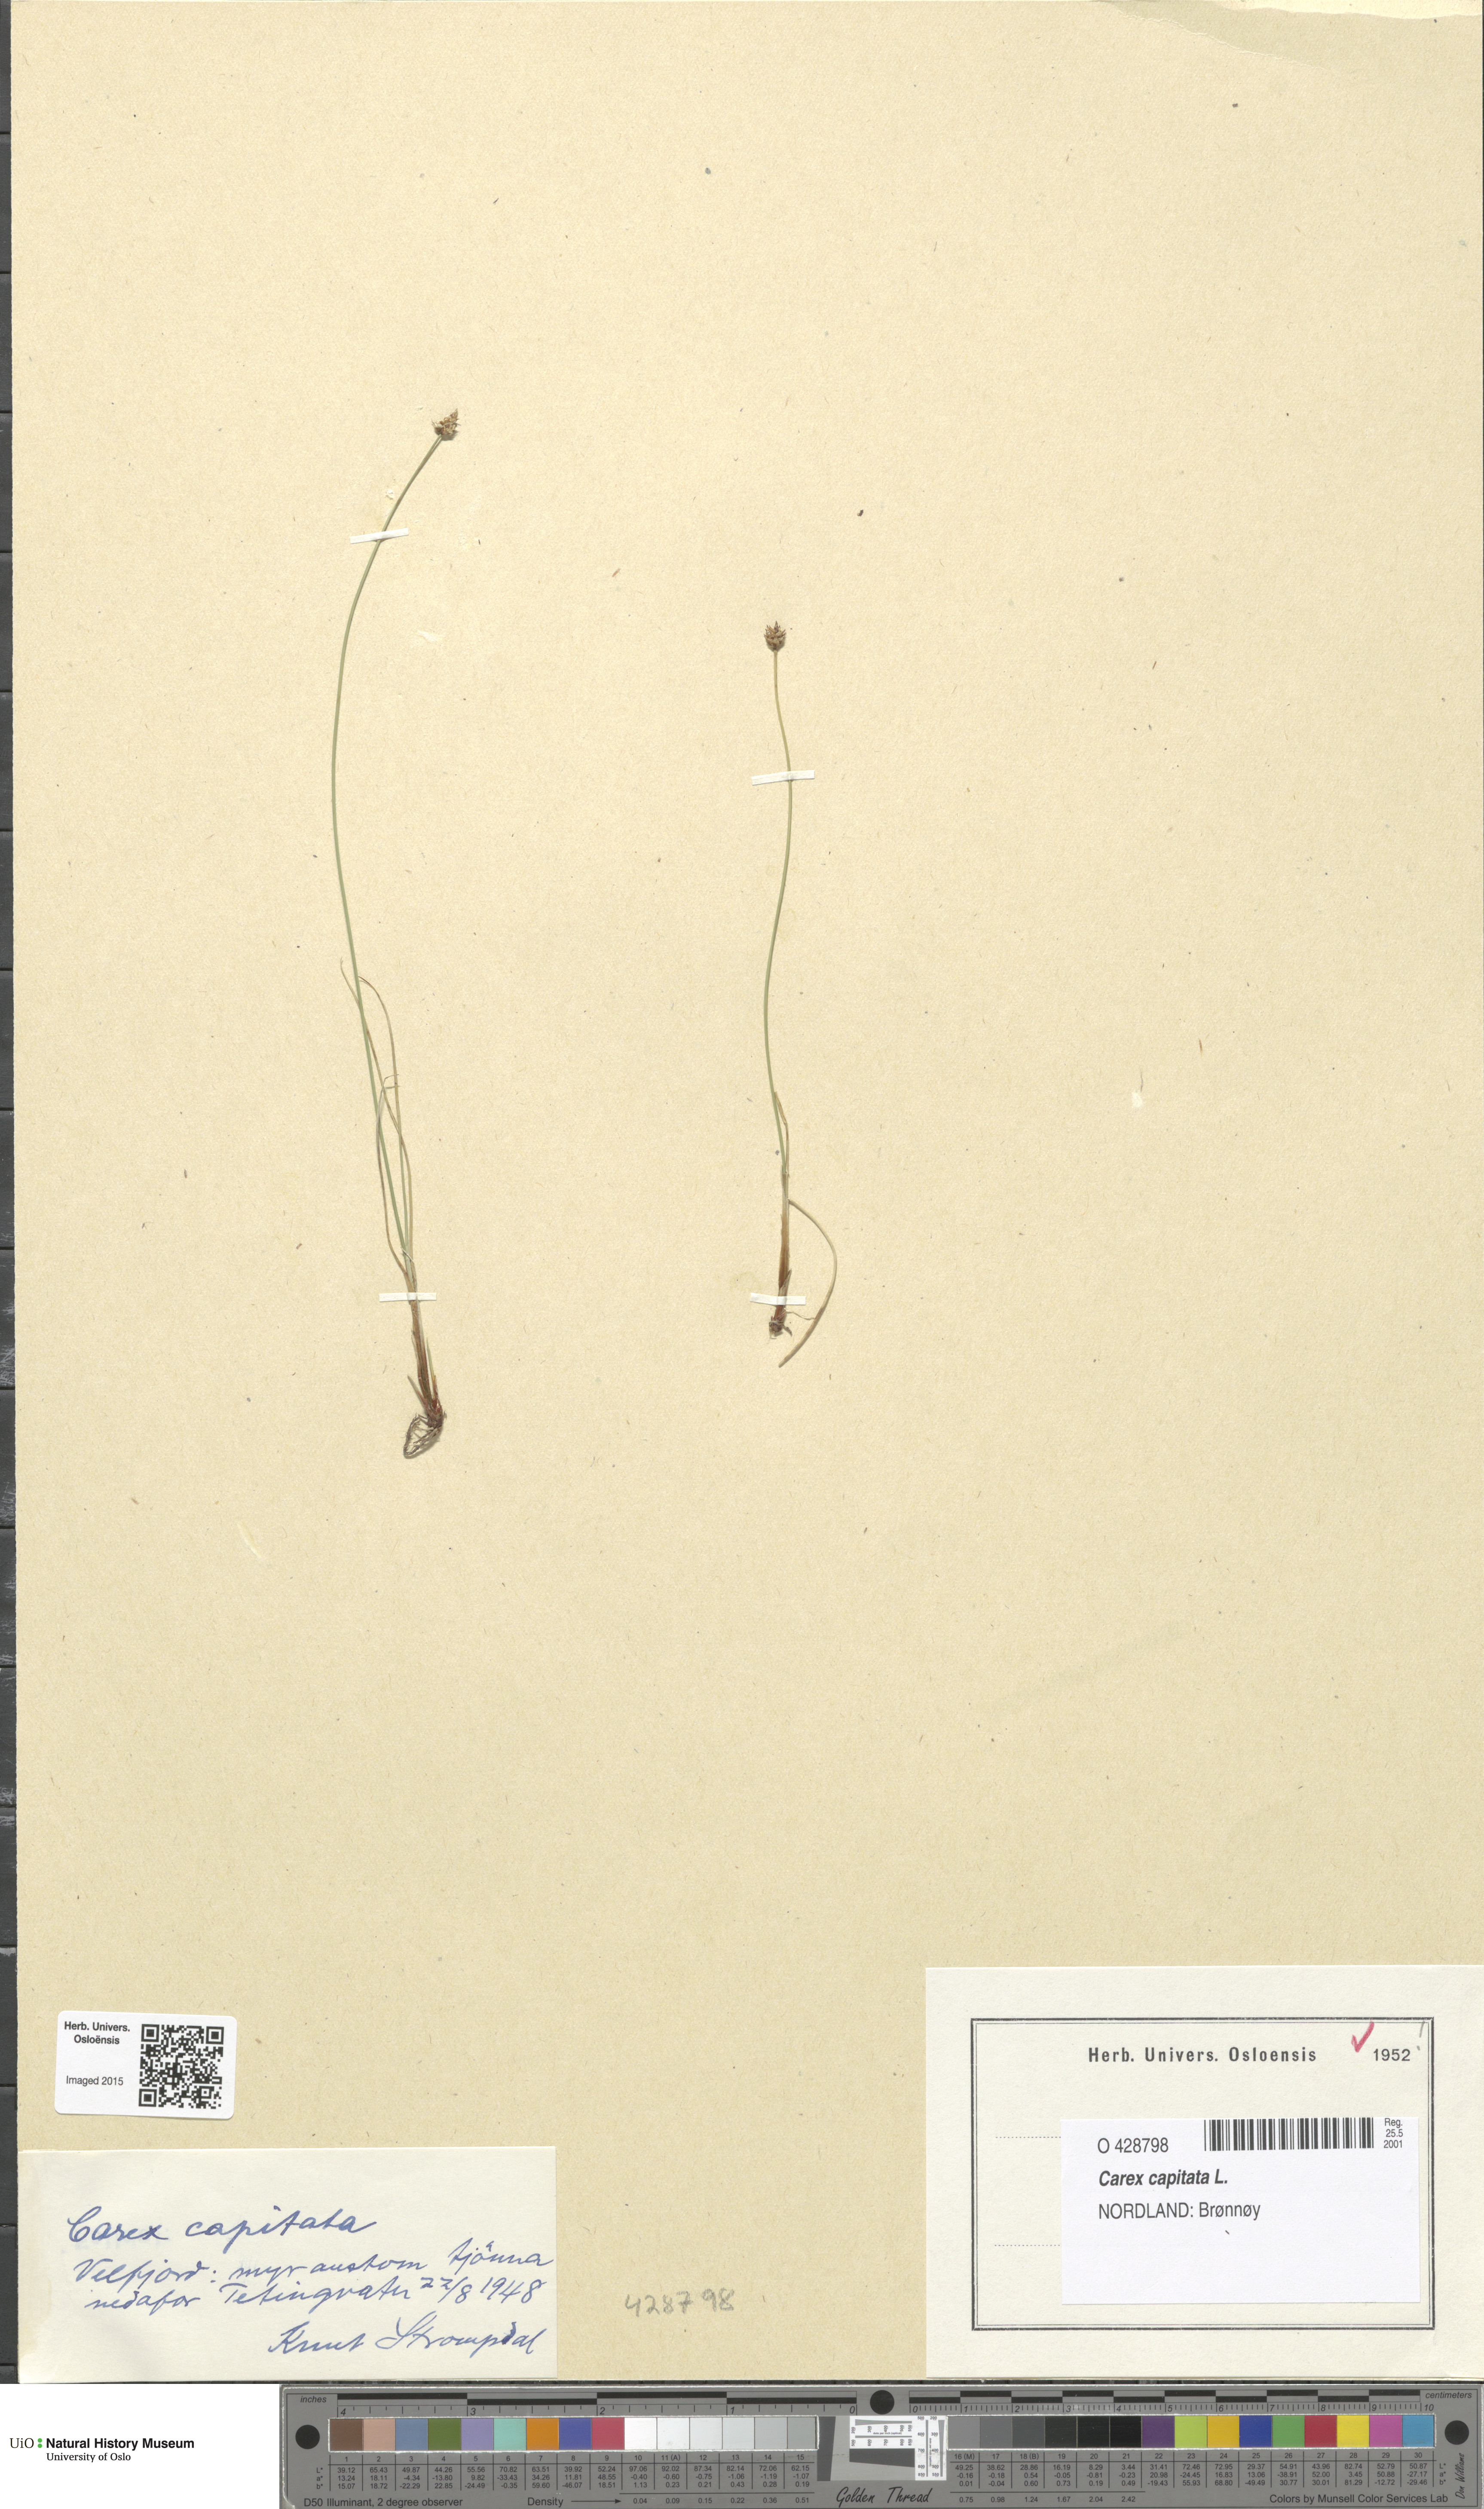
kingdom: Plantae
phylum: Tracheophyta
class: Liliopsida
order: Poales
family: Cyperaceae
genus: Carex
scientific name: Carex capitata
